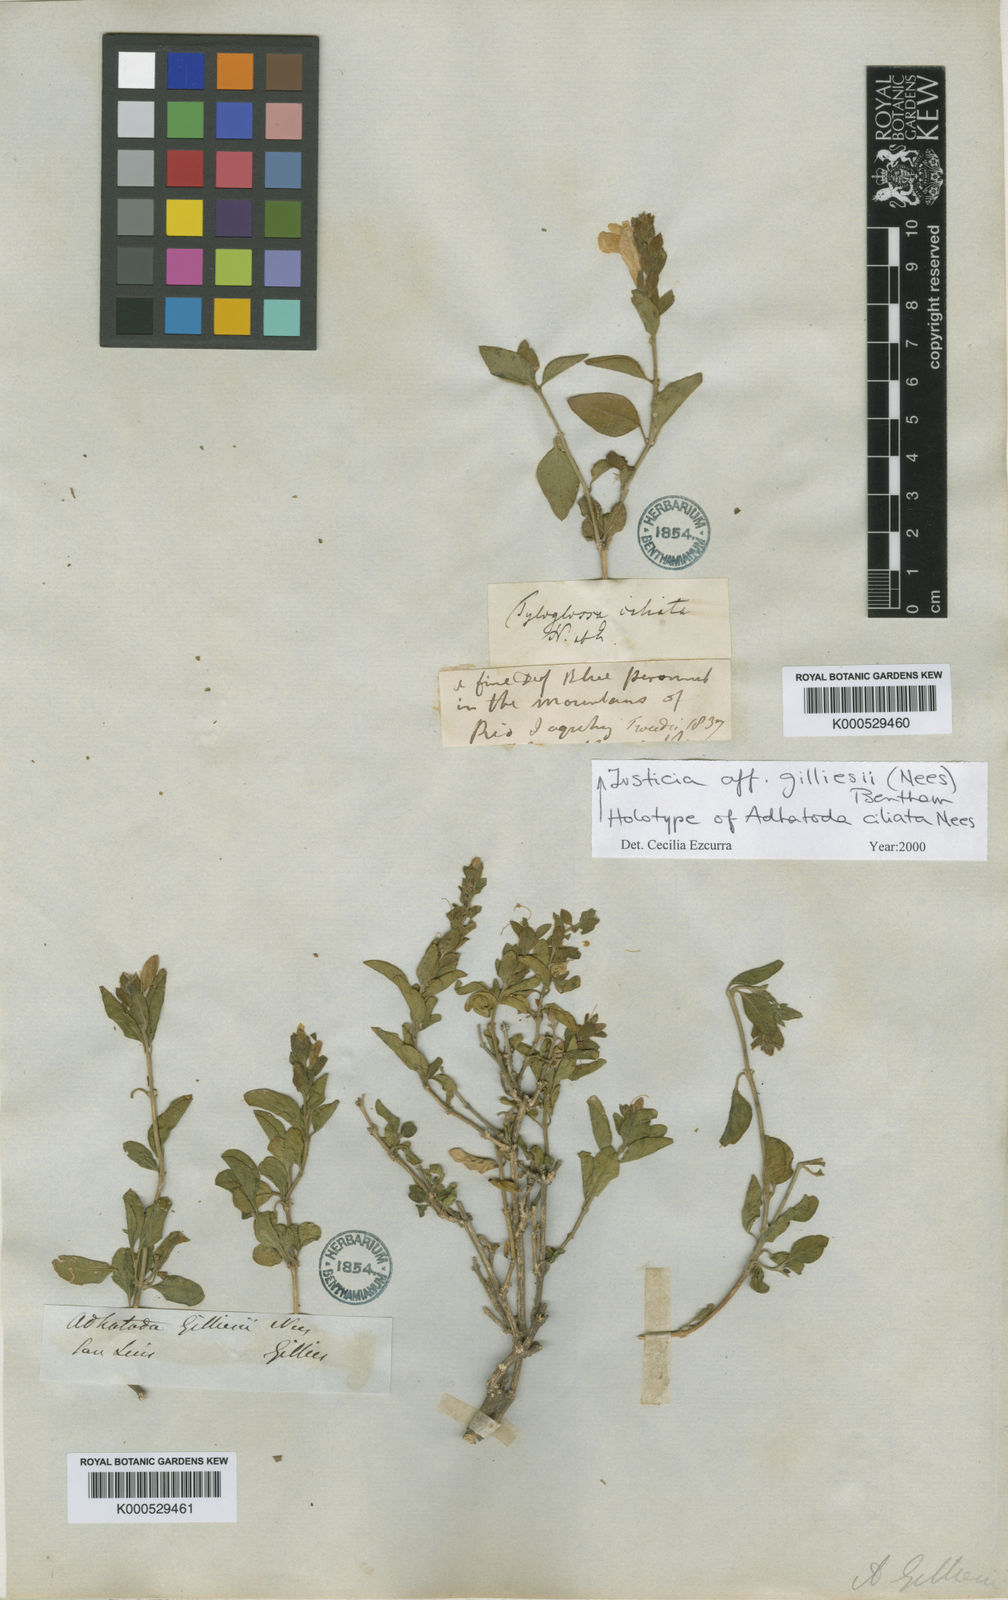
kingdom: Plantae
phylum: Tracheophyta
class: Magnoliopsida
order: Lamiales
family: Acanthaceae
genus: Justicia
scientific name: Justicia
